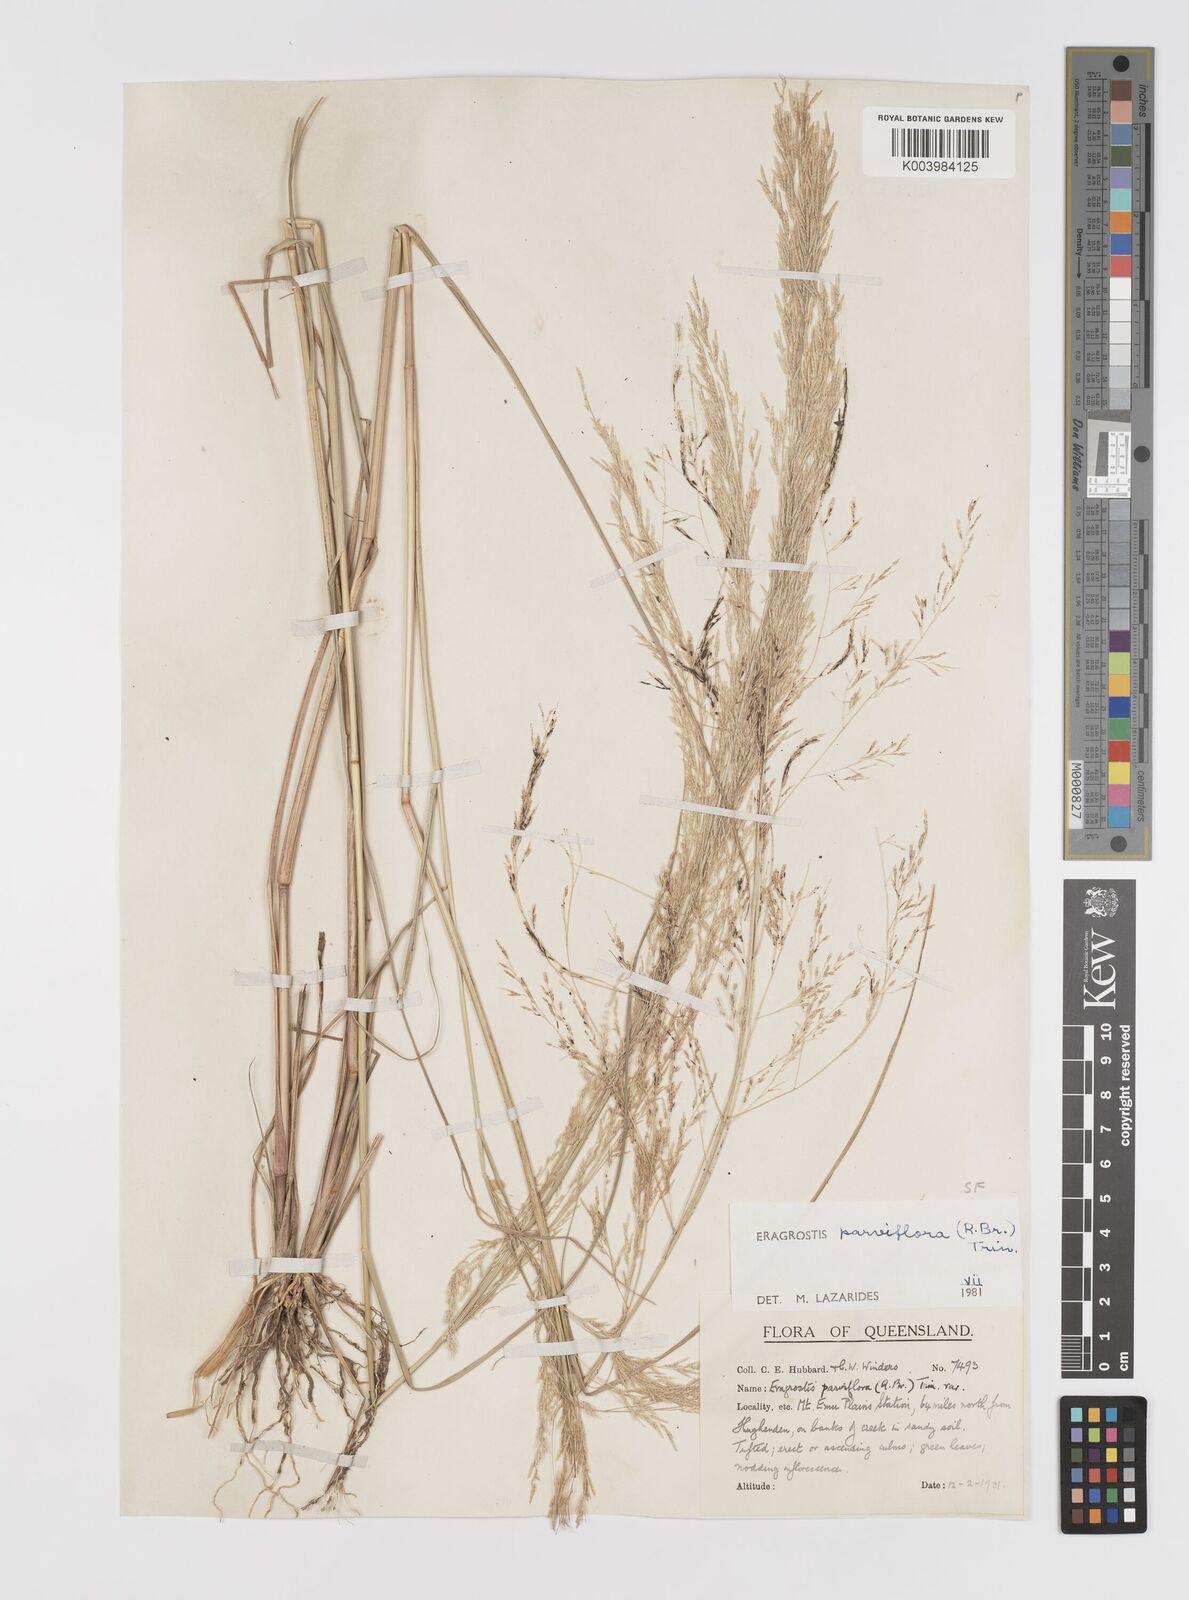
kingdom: Plantae
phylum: Tracheophyta
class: Liliopsida
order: Poales
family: Poaceae
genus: Eragrostis
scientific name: Eragrostis parviflora
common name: Weeping love-grass
